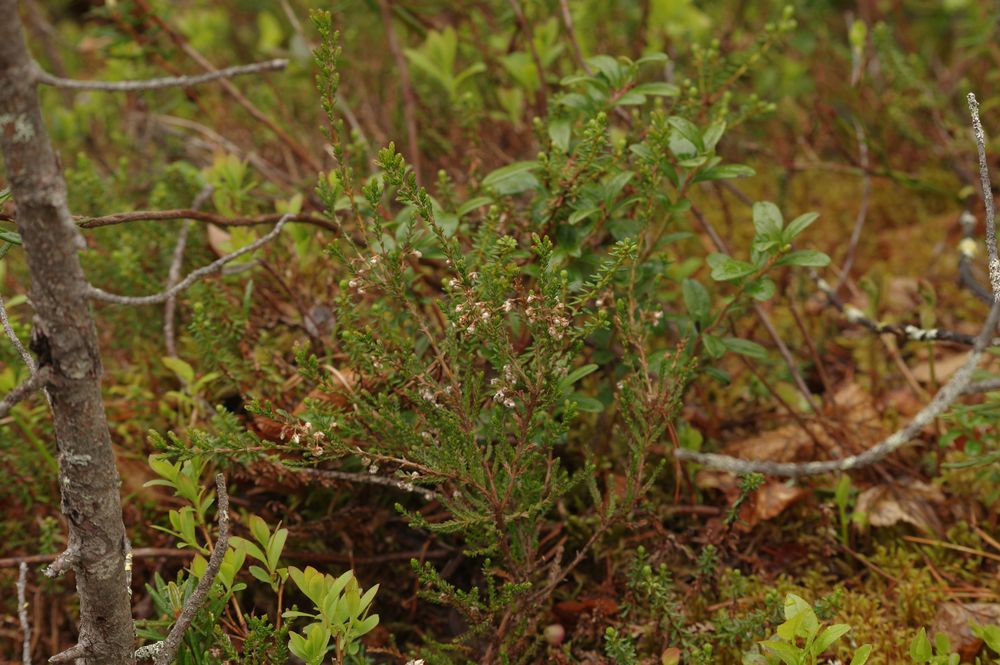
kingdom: Plantae
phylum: Tracheophyta
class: Magnoliopsida
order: Ericales
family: Ericaceae
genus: Calluna
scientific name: Calluna vulgaris
